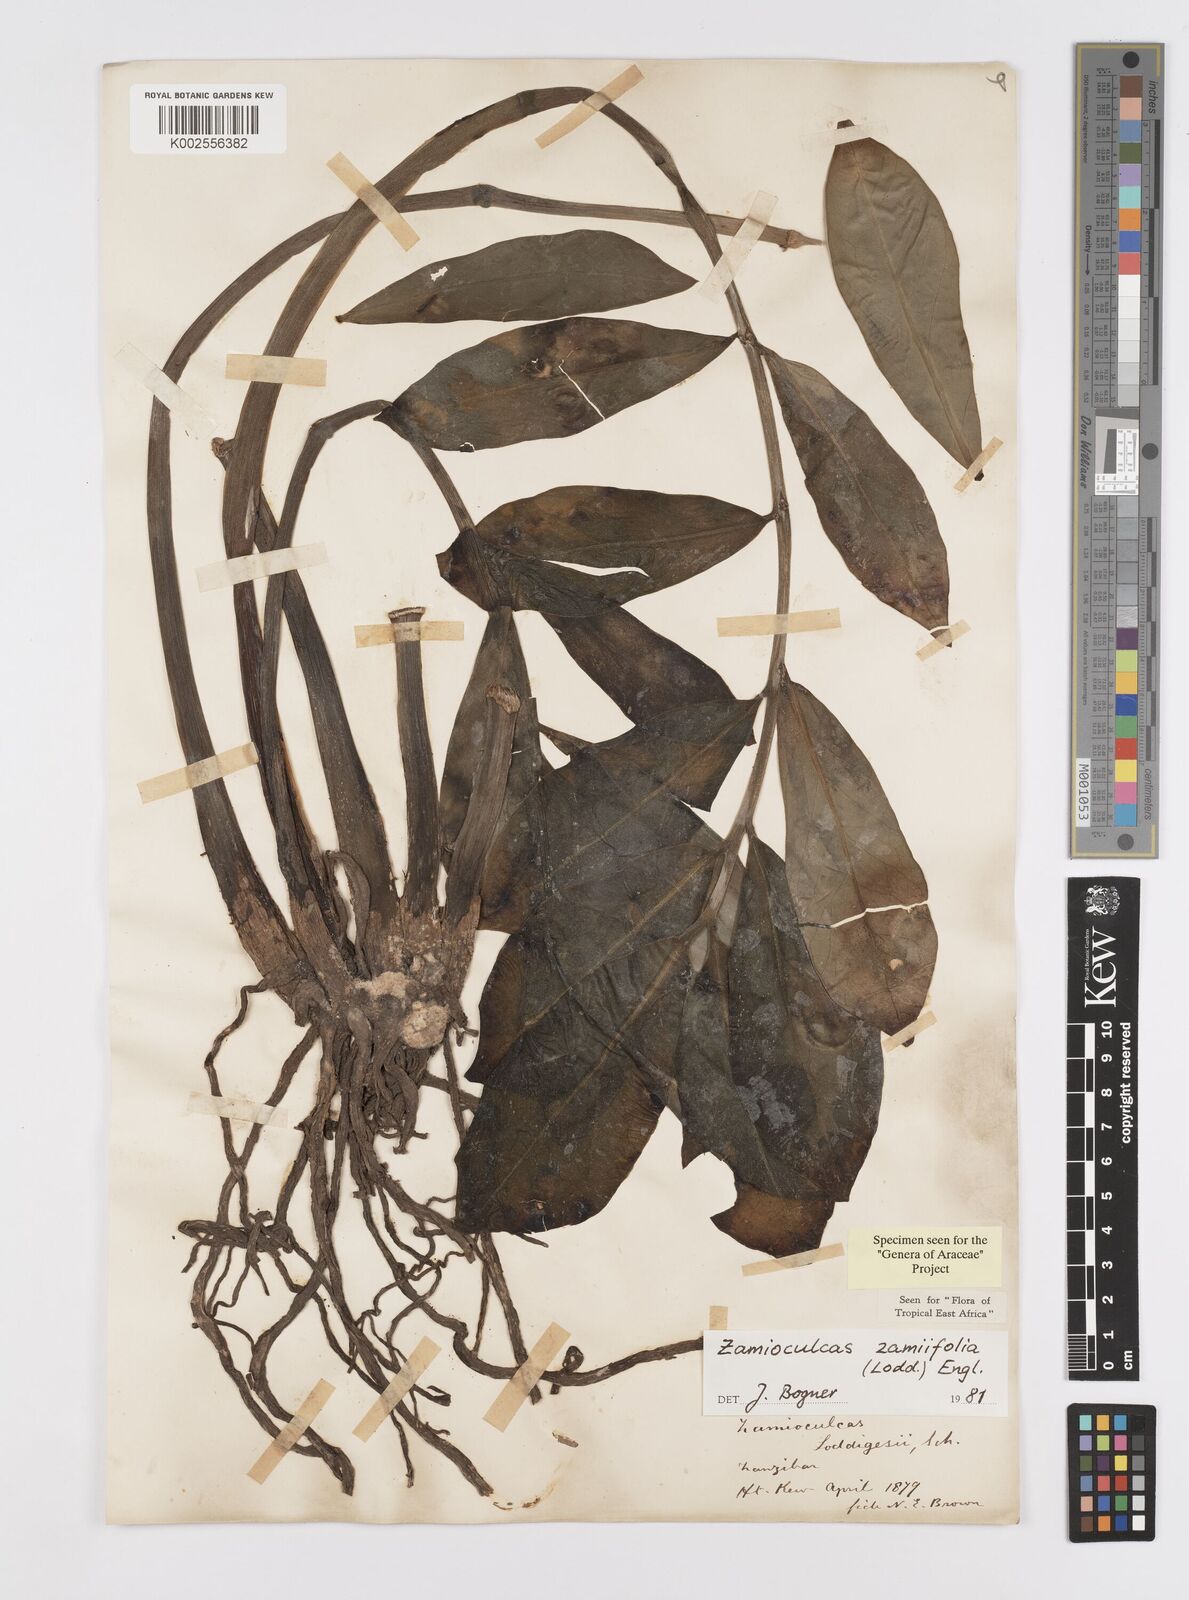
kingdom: Plantae
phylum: Tracheophyta
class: Liliopsida
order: Alismatales
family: Araceae
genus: Zamioculcas
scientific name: Zamioculcas zamiifolia
